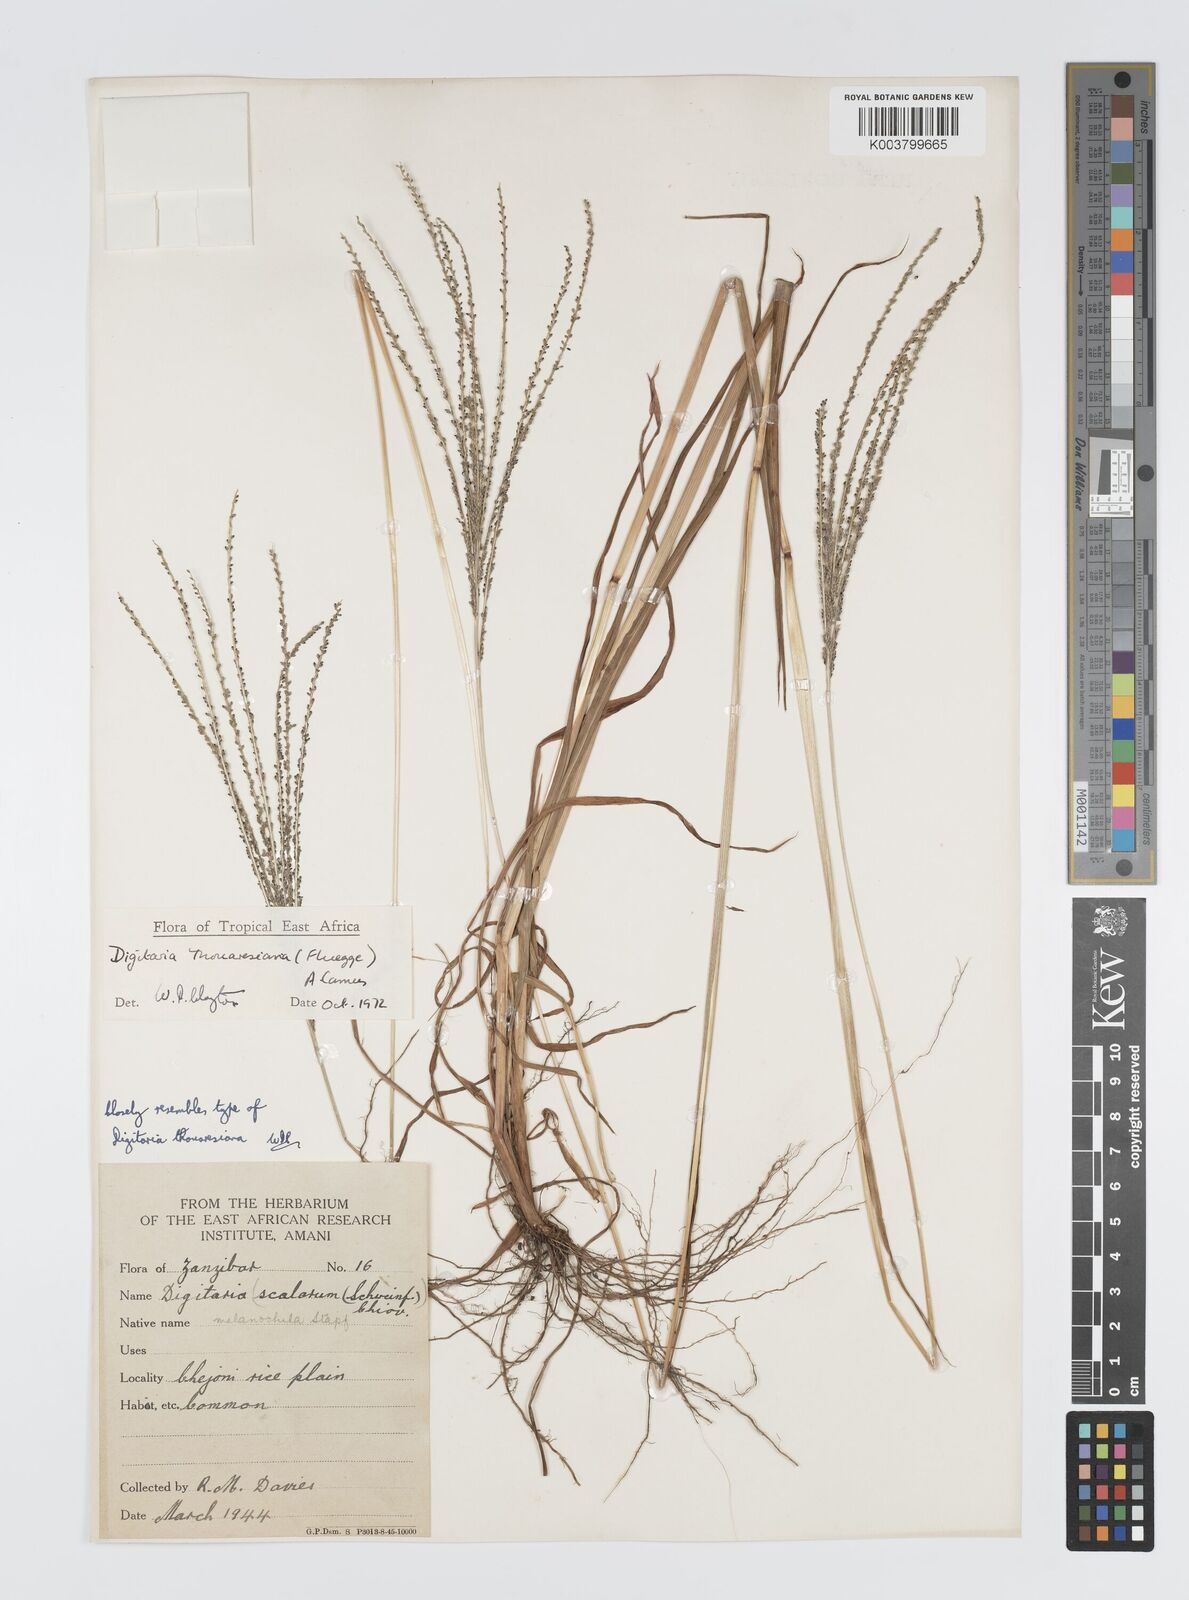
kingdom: Plantae
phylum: Tracheophyta
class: Liliopsida
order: Poales
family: Poaceae
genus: Digitaria
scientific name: Digitaria thouarsiana
